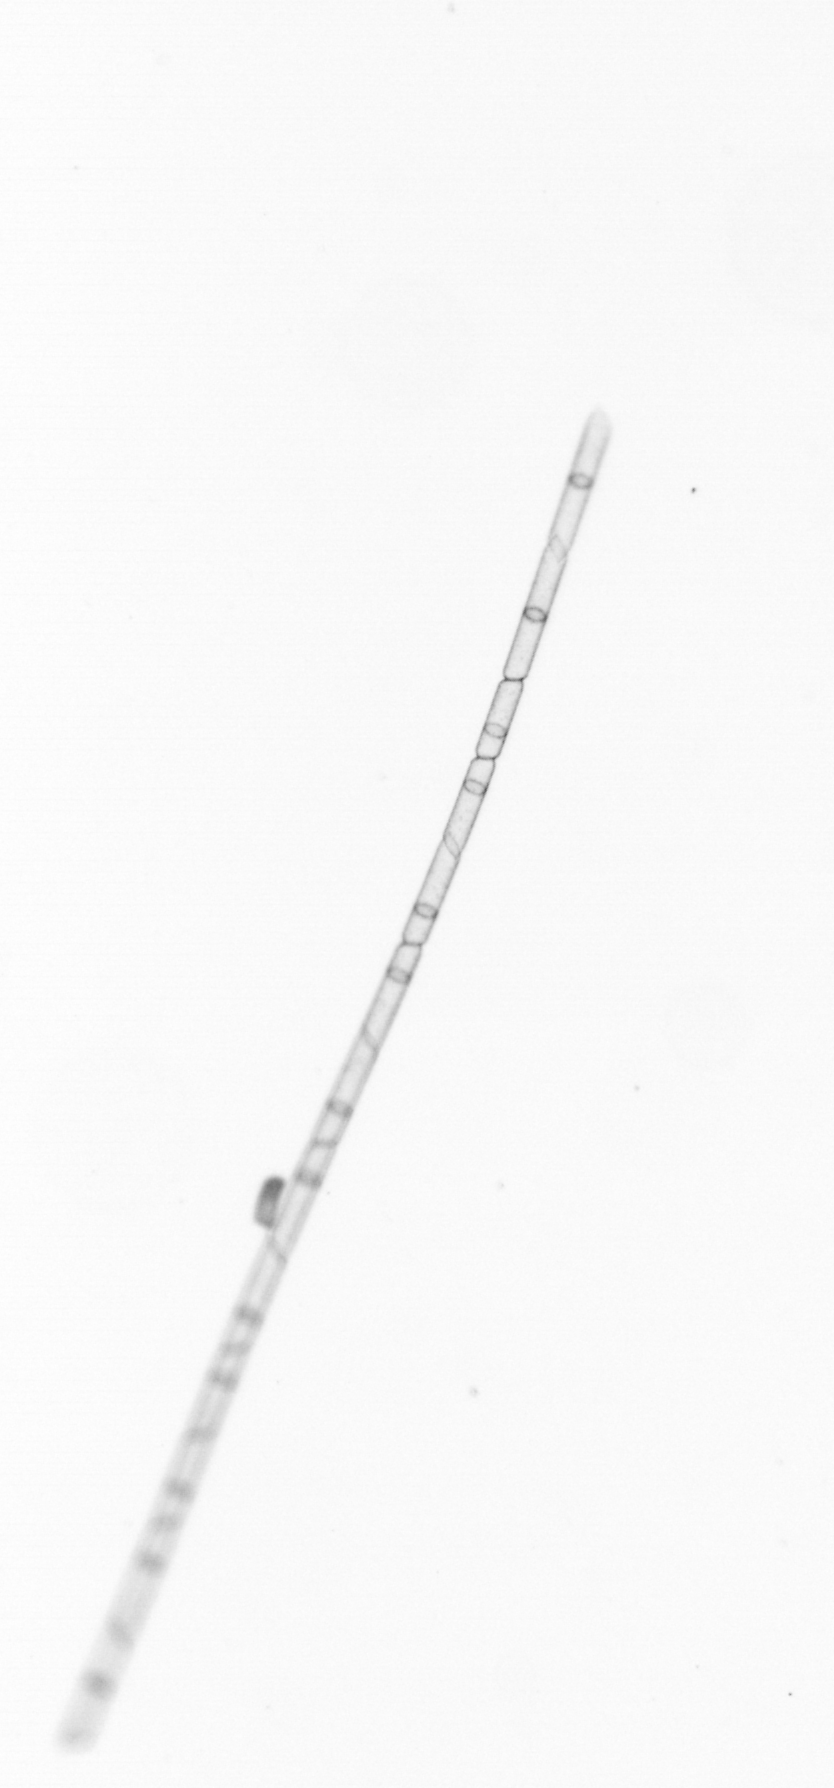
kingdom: Chromista
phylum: Ochrophyta
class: Bacillariophyceae
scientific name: Bacillariophyceae
